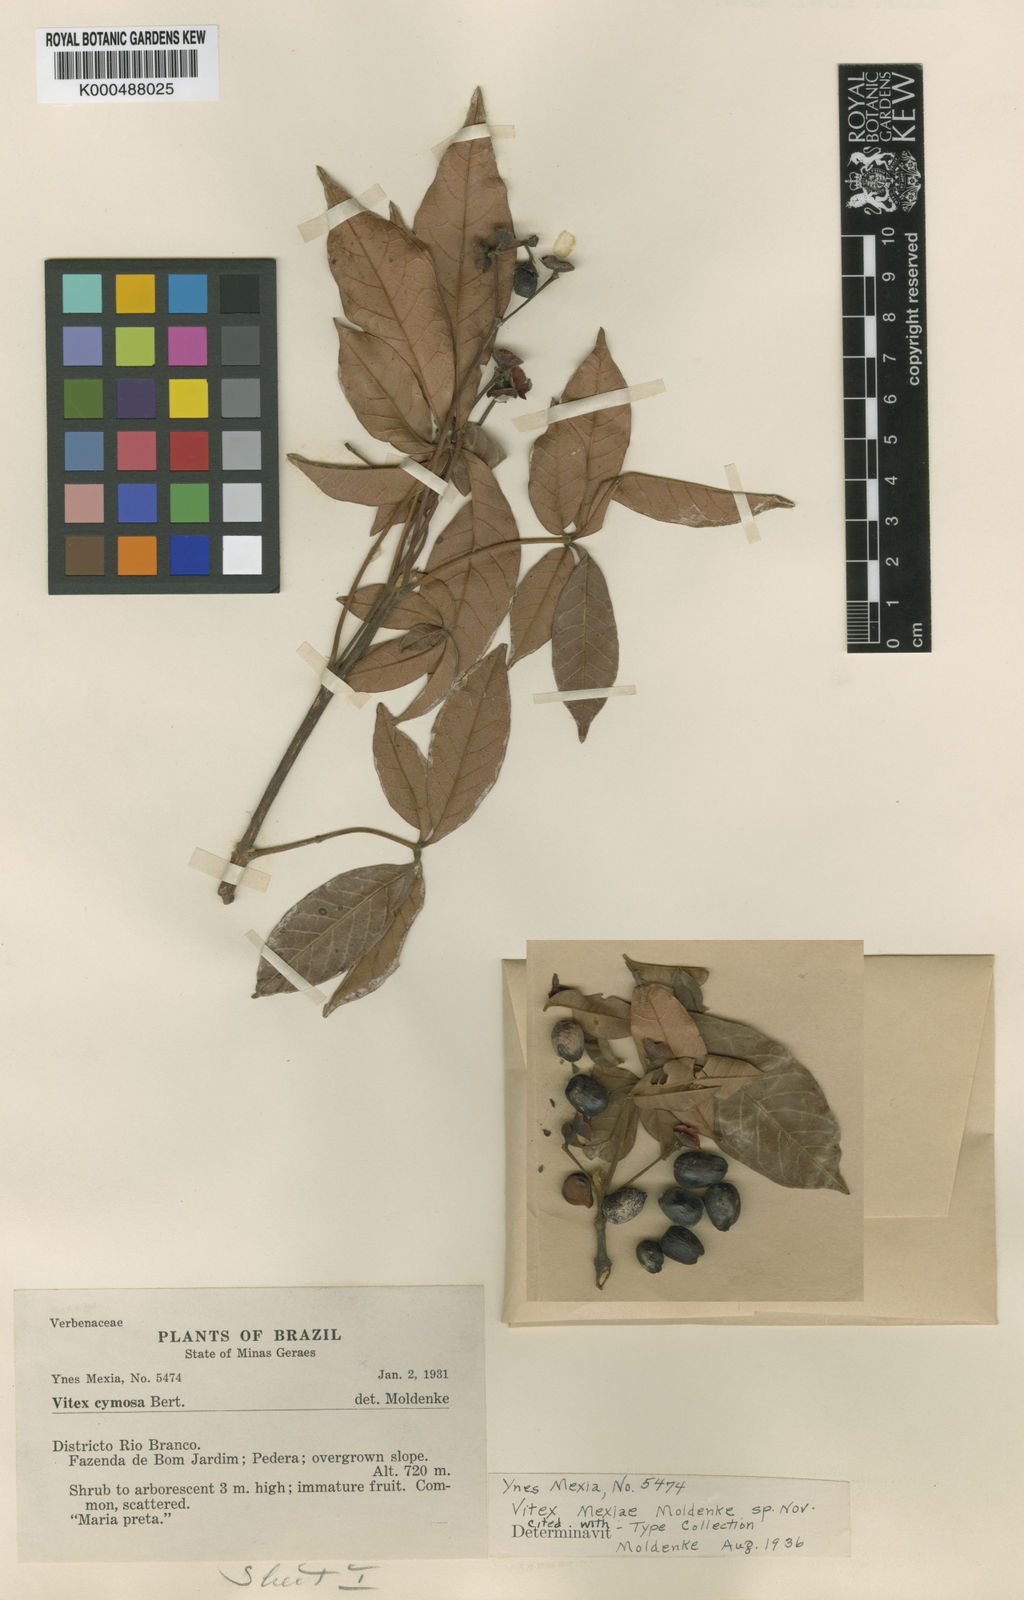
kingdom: Plantae
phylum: Tracheophyta
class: Magnoliopsida
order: Lamiales
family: Lamiaceae
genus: Vitex
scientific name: Vitex sellowiana
